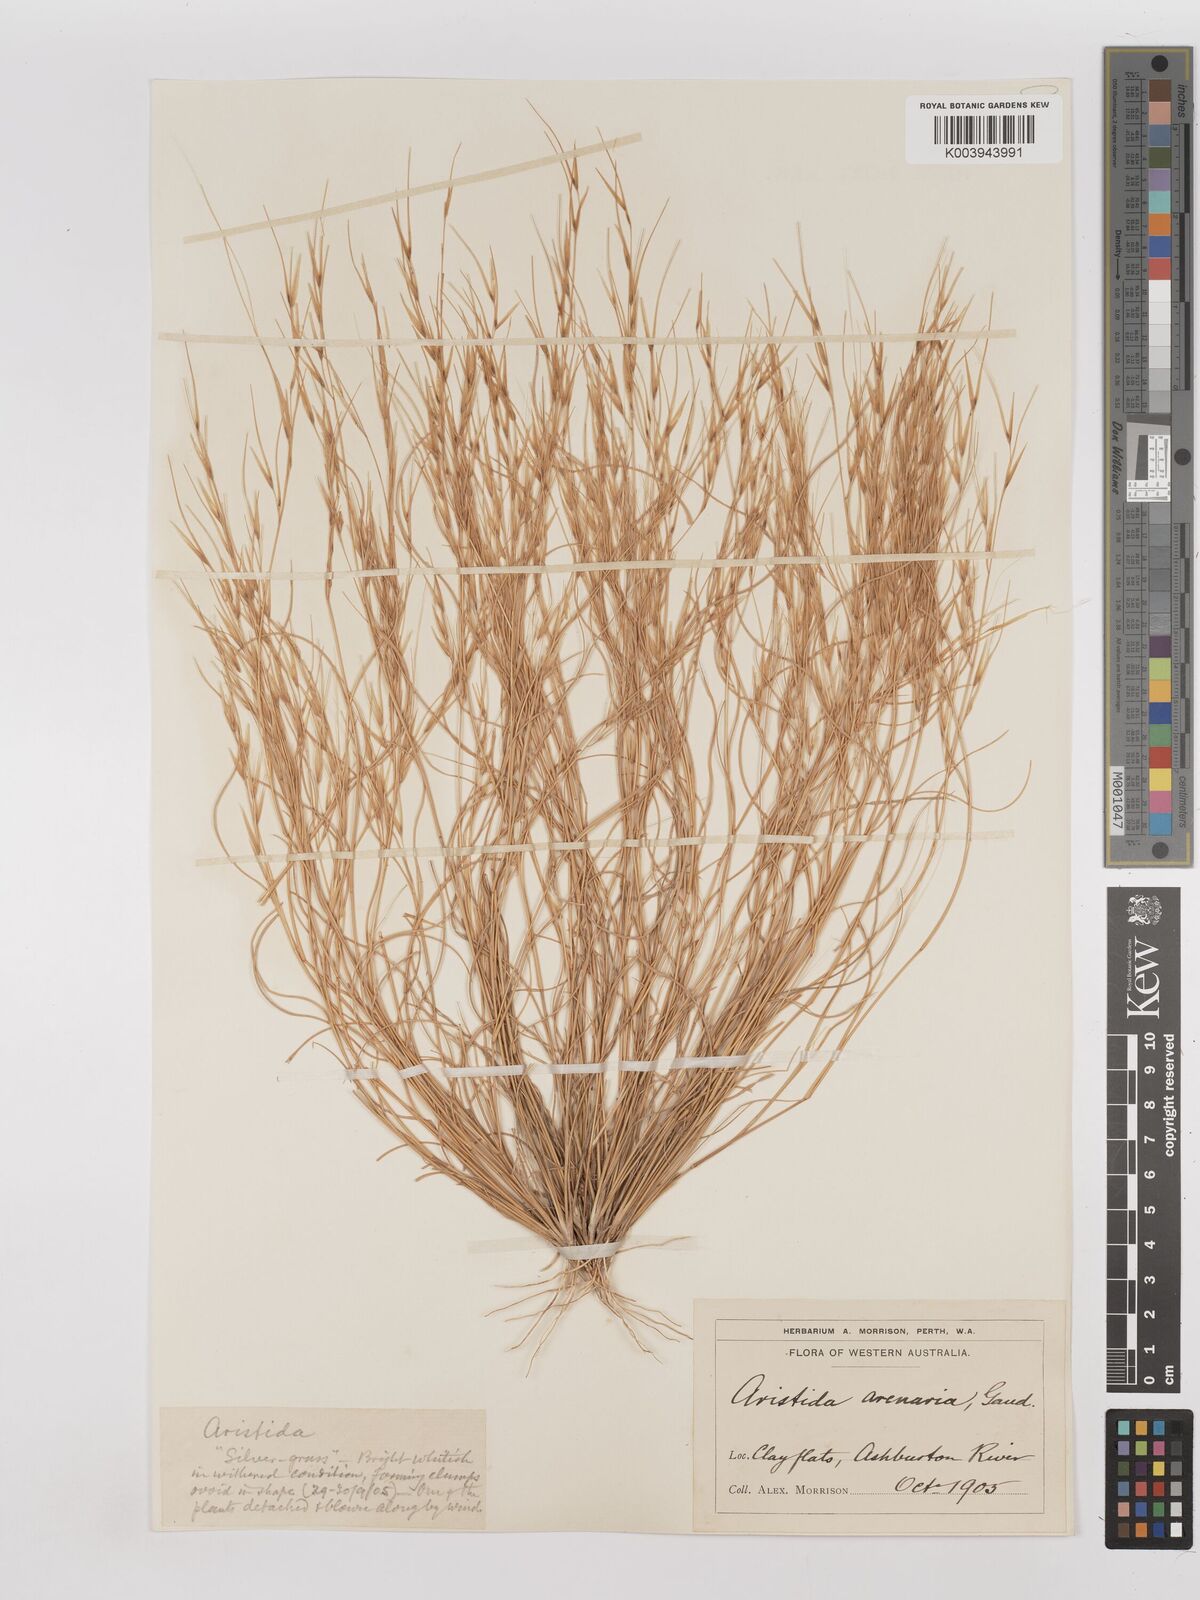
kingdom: Plantae
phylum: Tracheophyta
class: Liliopsida
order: Poales
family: Poaceae
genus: Aristida
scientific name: Aristida contorta
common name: Bunch kerosene grass
